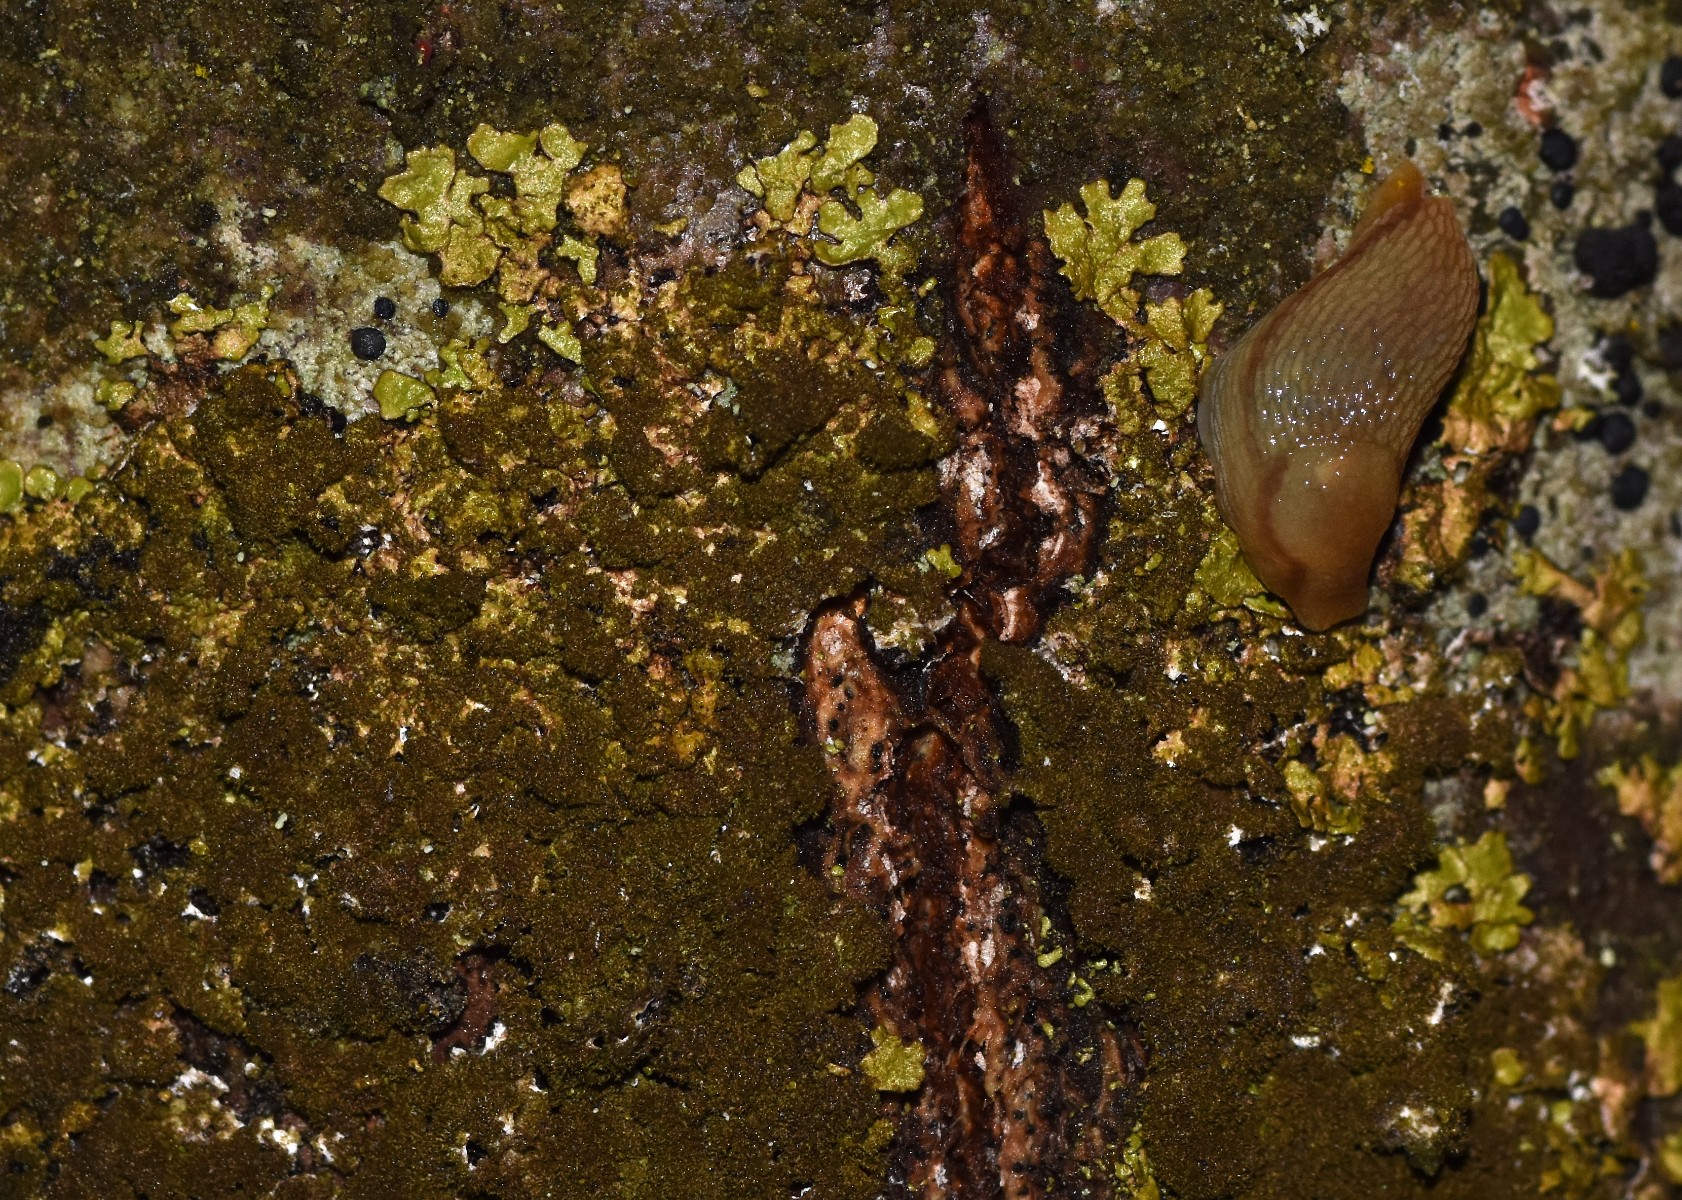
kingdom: Fungi
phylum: Ascomycota
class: Lecanoromycetes
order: Lecanorales
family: Parmeliaceae
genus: Melanelixia
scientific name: Melanelixia glabratula
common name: glinsende skållav
